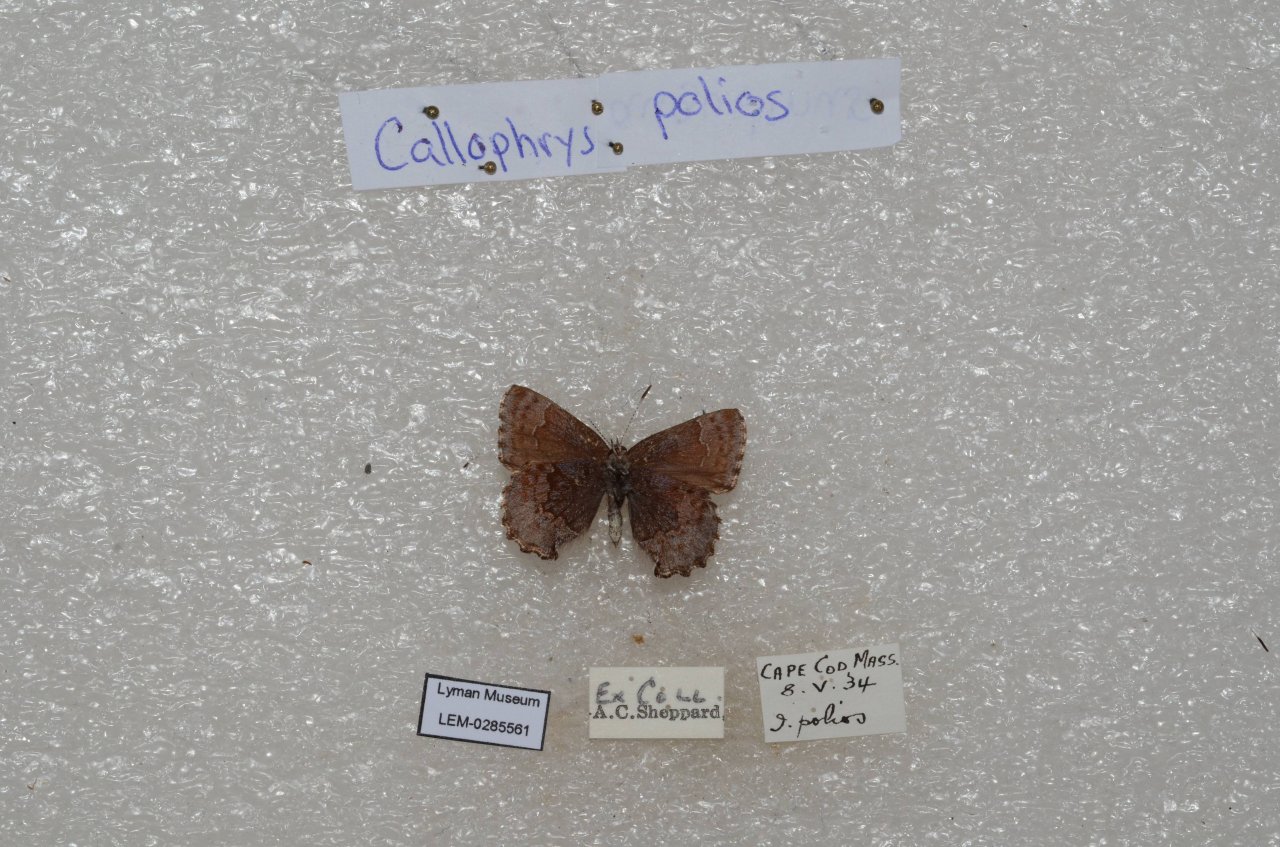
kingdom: Animalia
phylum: Arthropoda
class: Insecta
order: Lepidoptera
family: Lycaenidae
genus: Callophrys
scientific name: Callophrys polios
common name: Hoary Elfin
